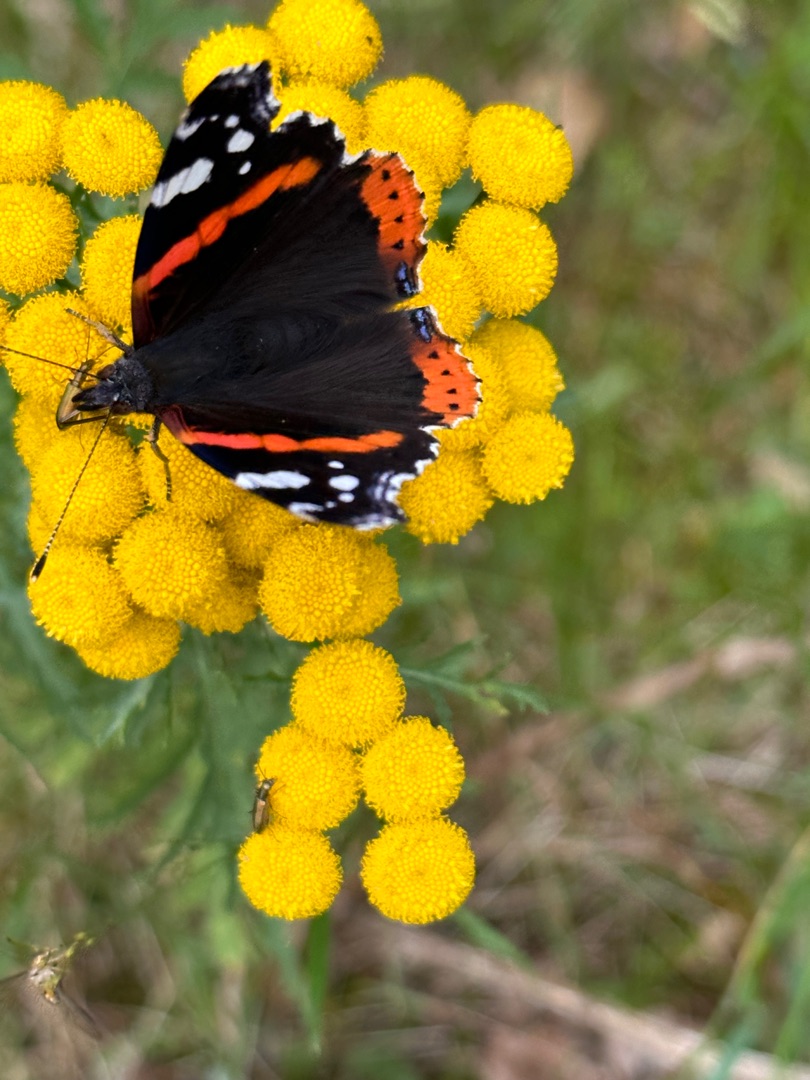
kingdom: Animalia
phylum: Arthropoda
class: Insecta
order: Lepidoptera
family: Nymphalidae
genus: Vanessa
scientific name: Vanessa atalanta
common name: Admiral
